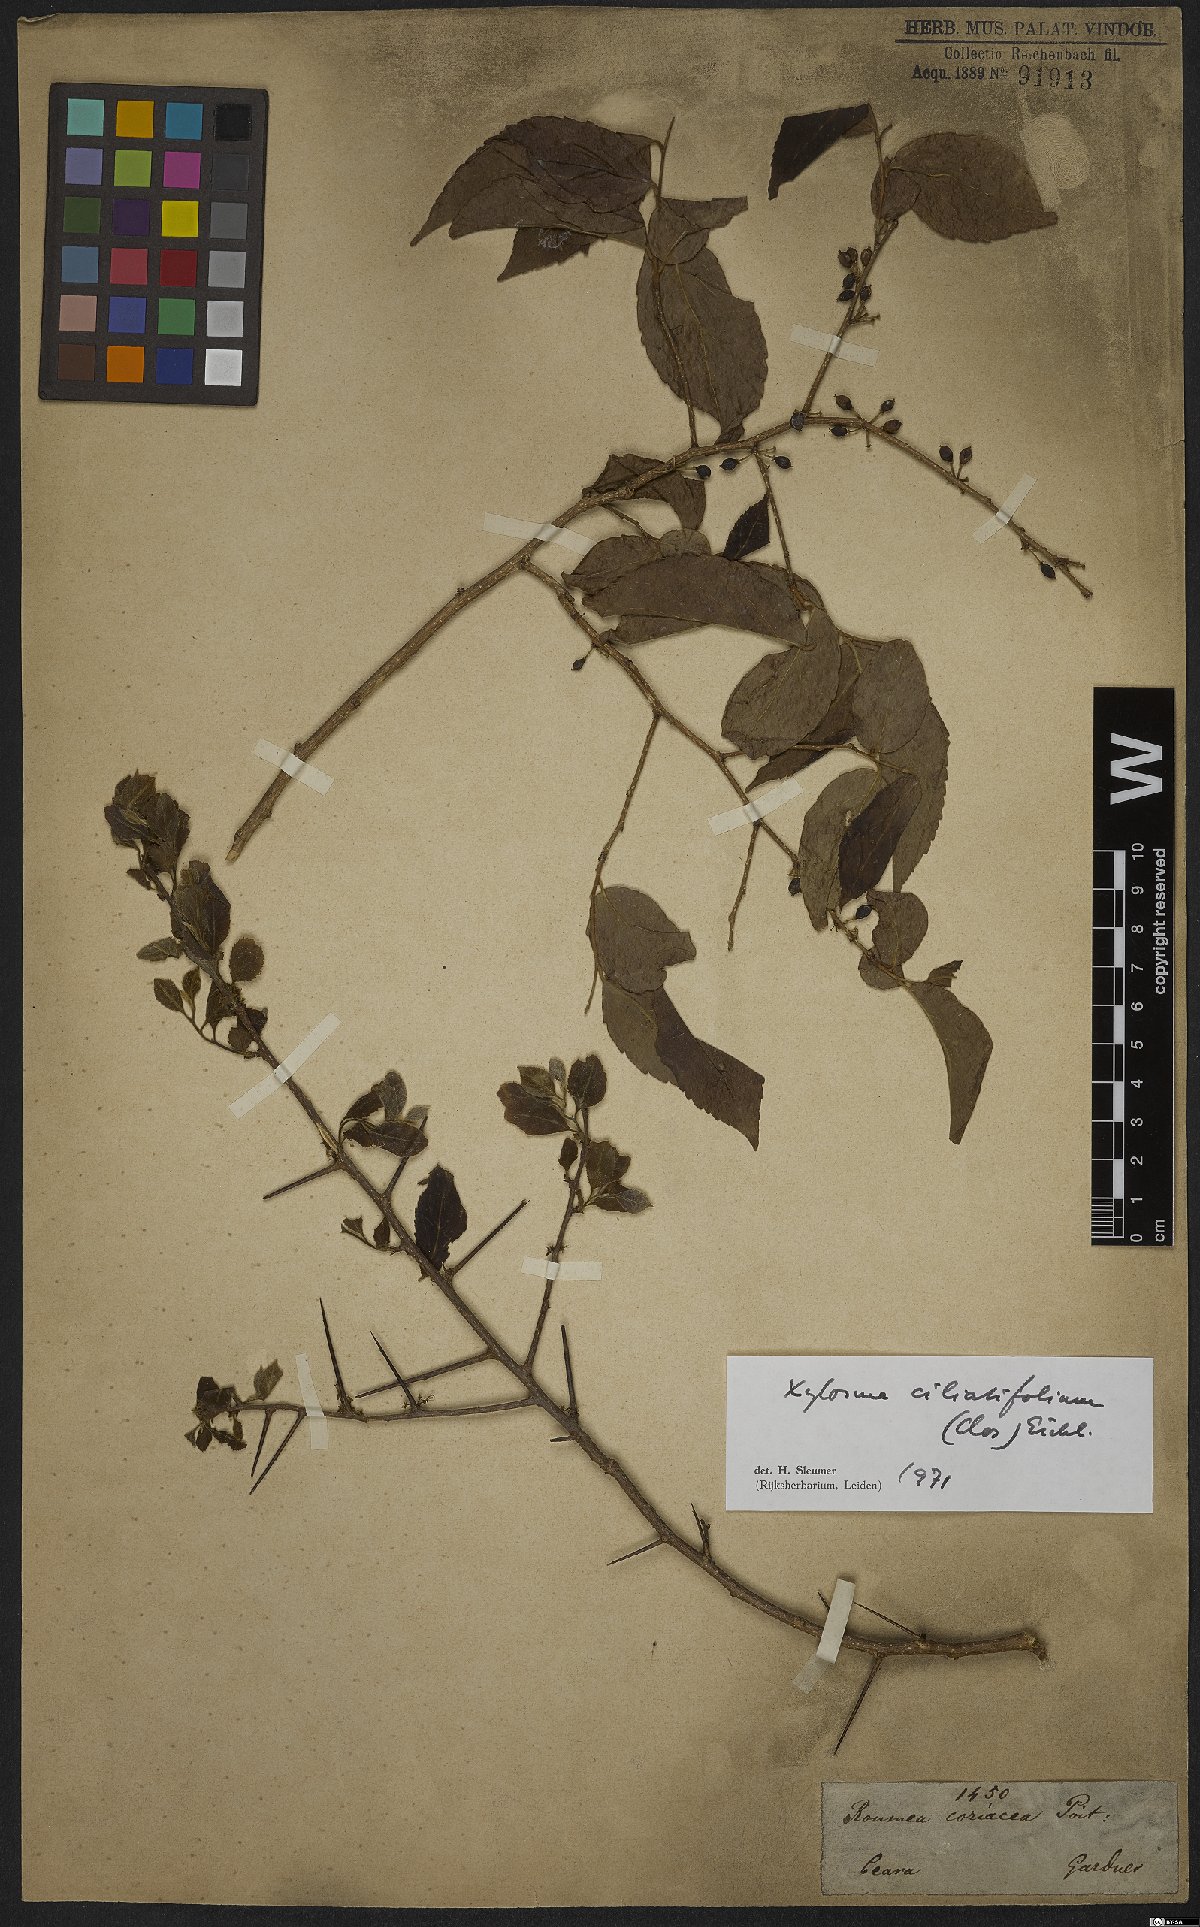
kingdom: Plantae
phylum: Tracheophyta
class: Magnoliopsida
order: Malpighiales
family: Salicaceae
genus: Xylosma
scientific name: Xylosma ciliatifolia
